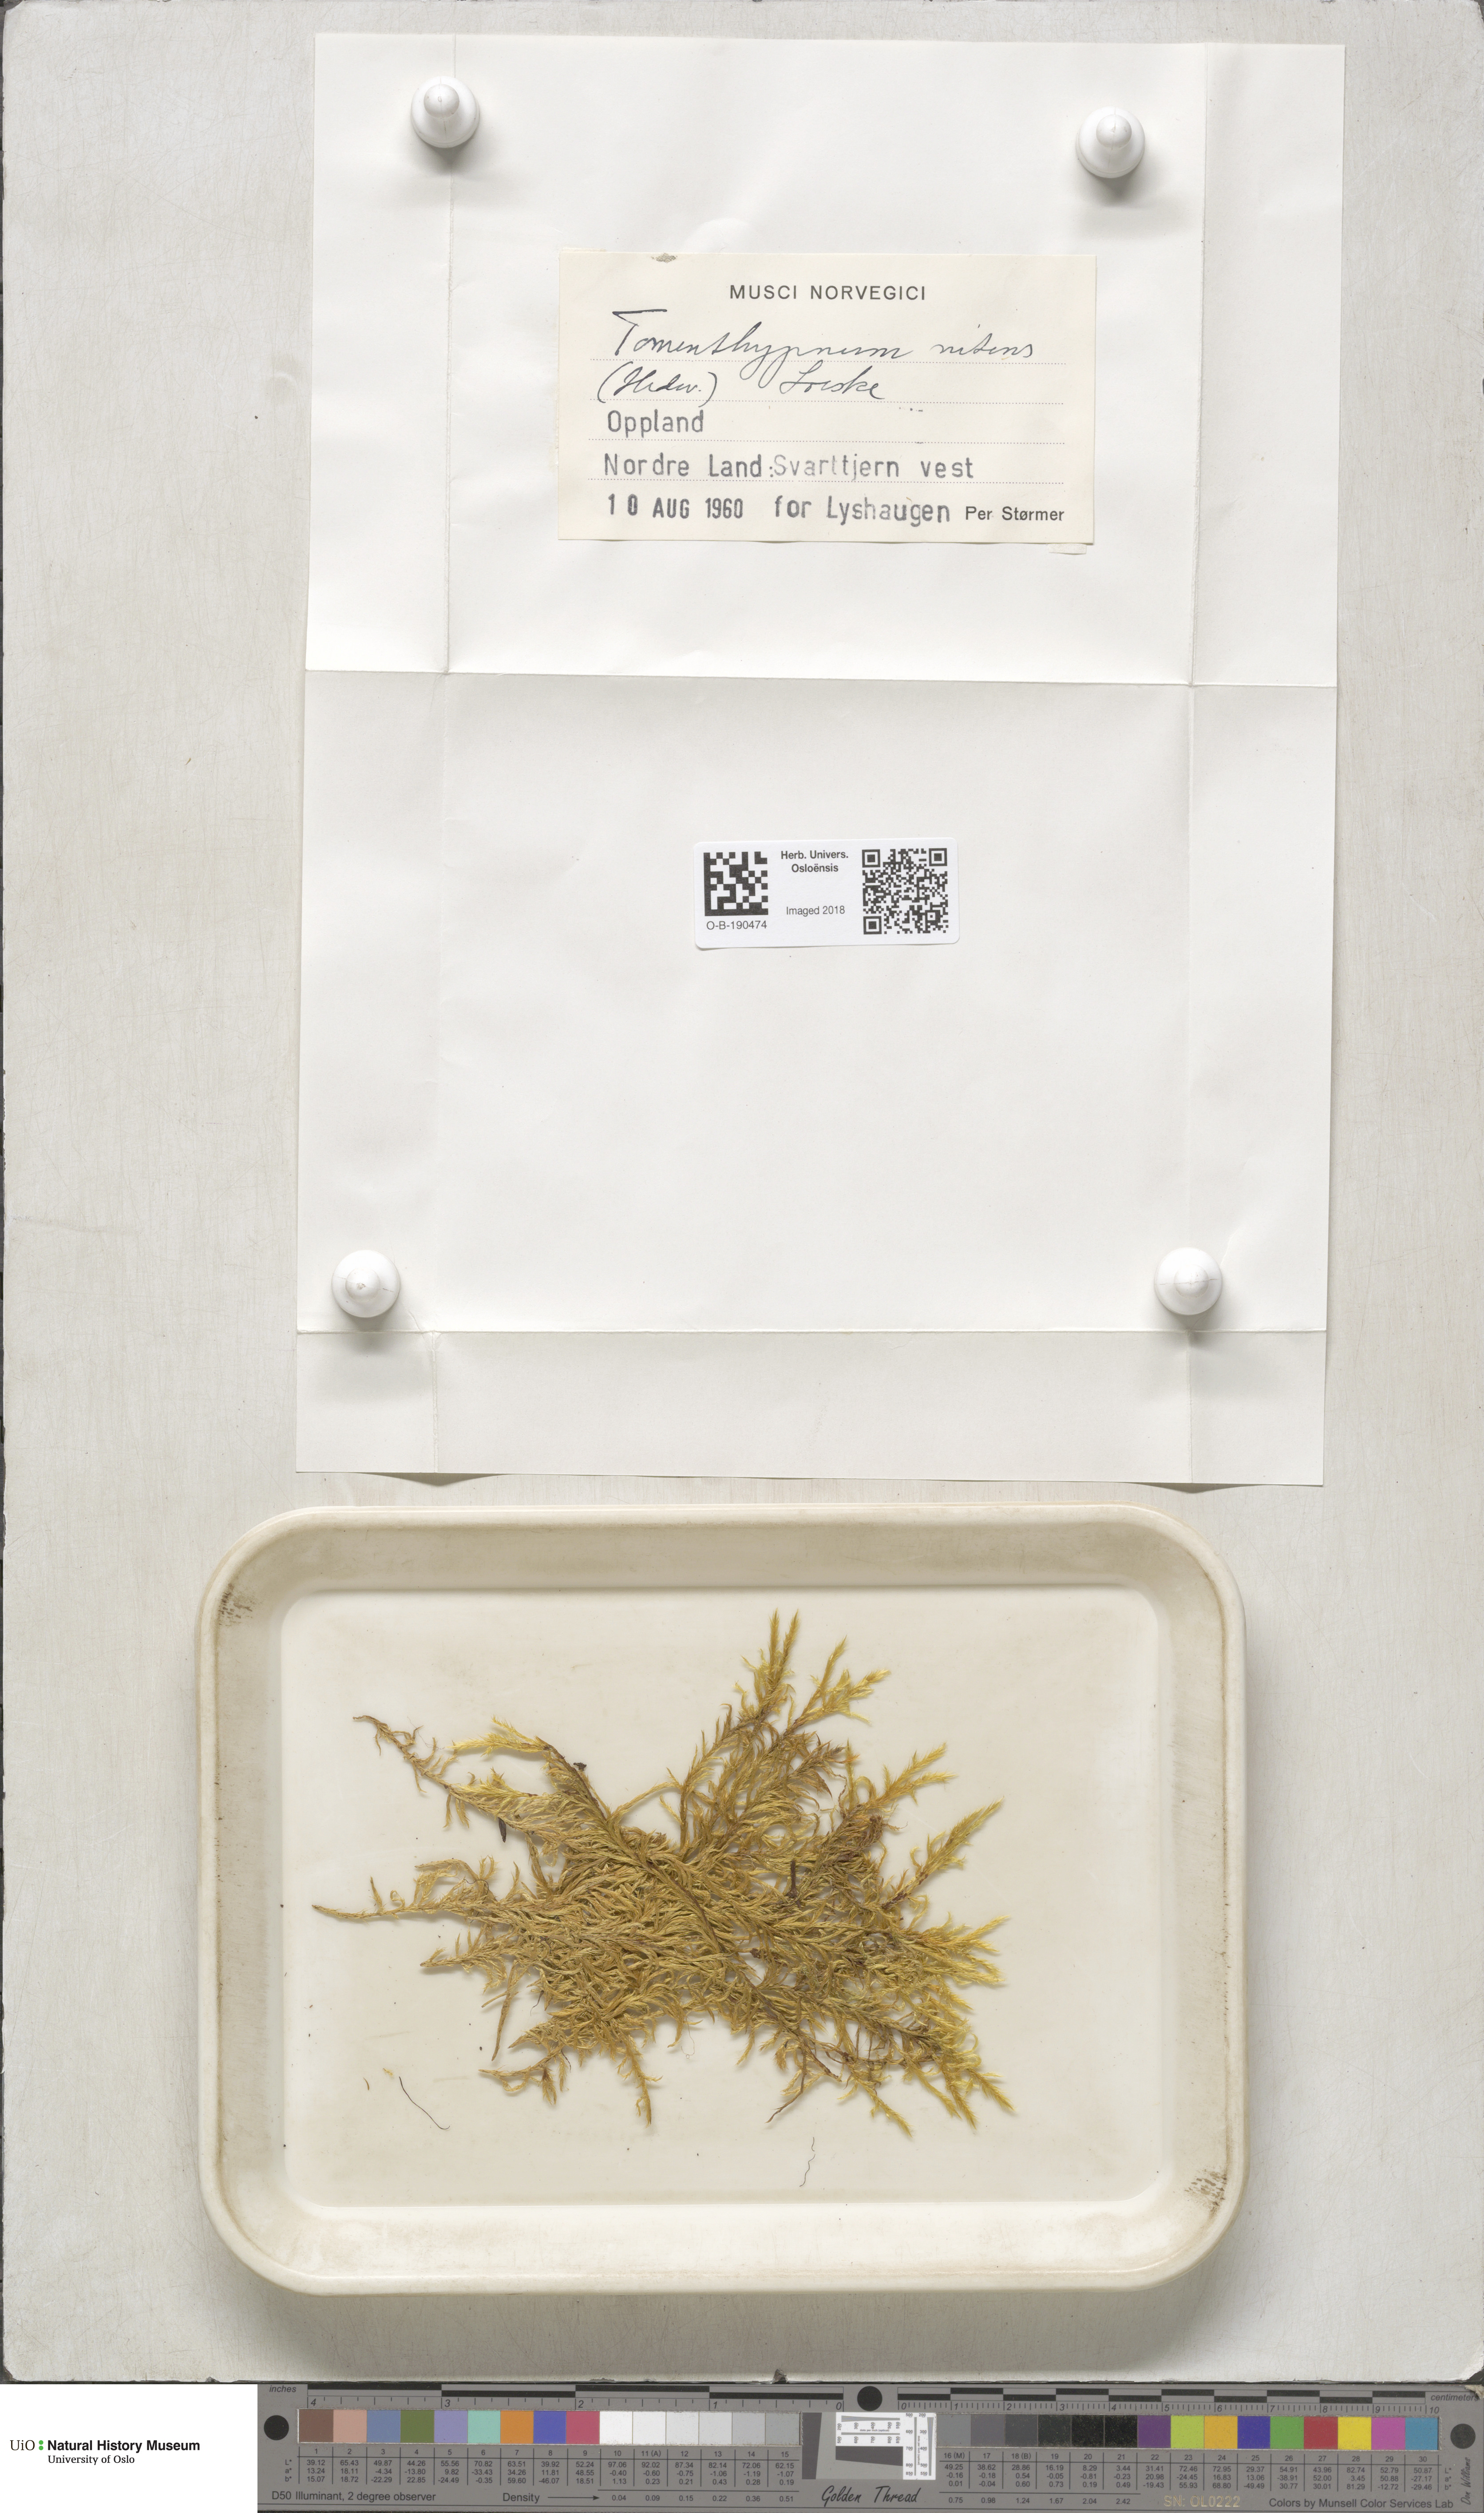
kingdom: Plantae
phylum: Bryophyta
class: Bryopsida
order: Hypnales
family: Amblystegiaceae
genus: Tomentypnum
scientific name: Tomentypnum nitens
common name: Golden fuzzy fen moss
